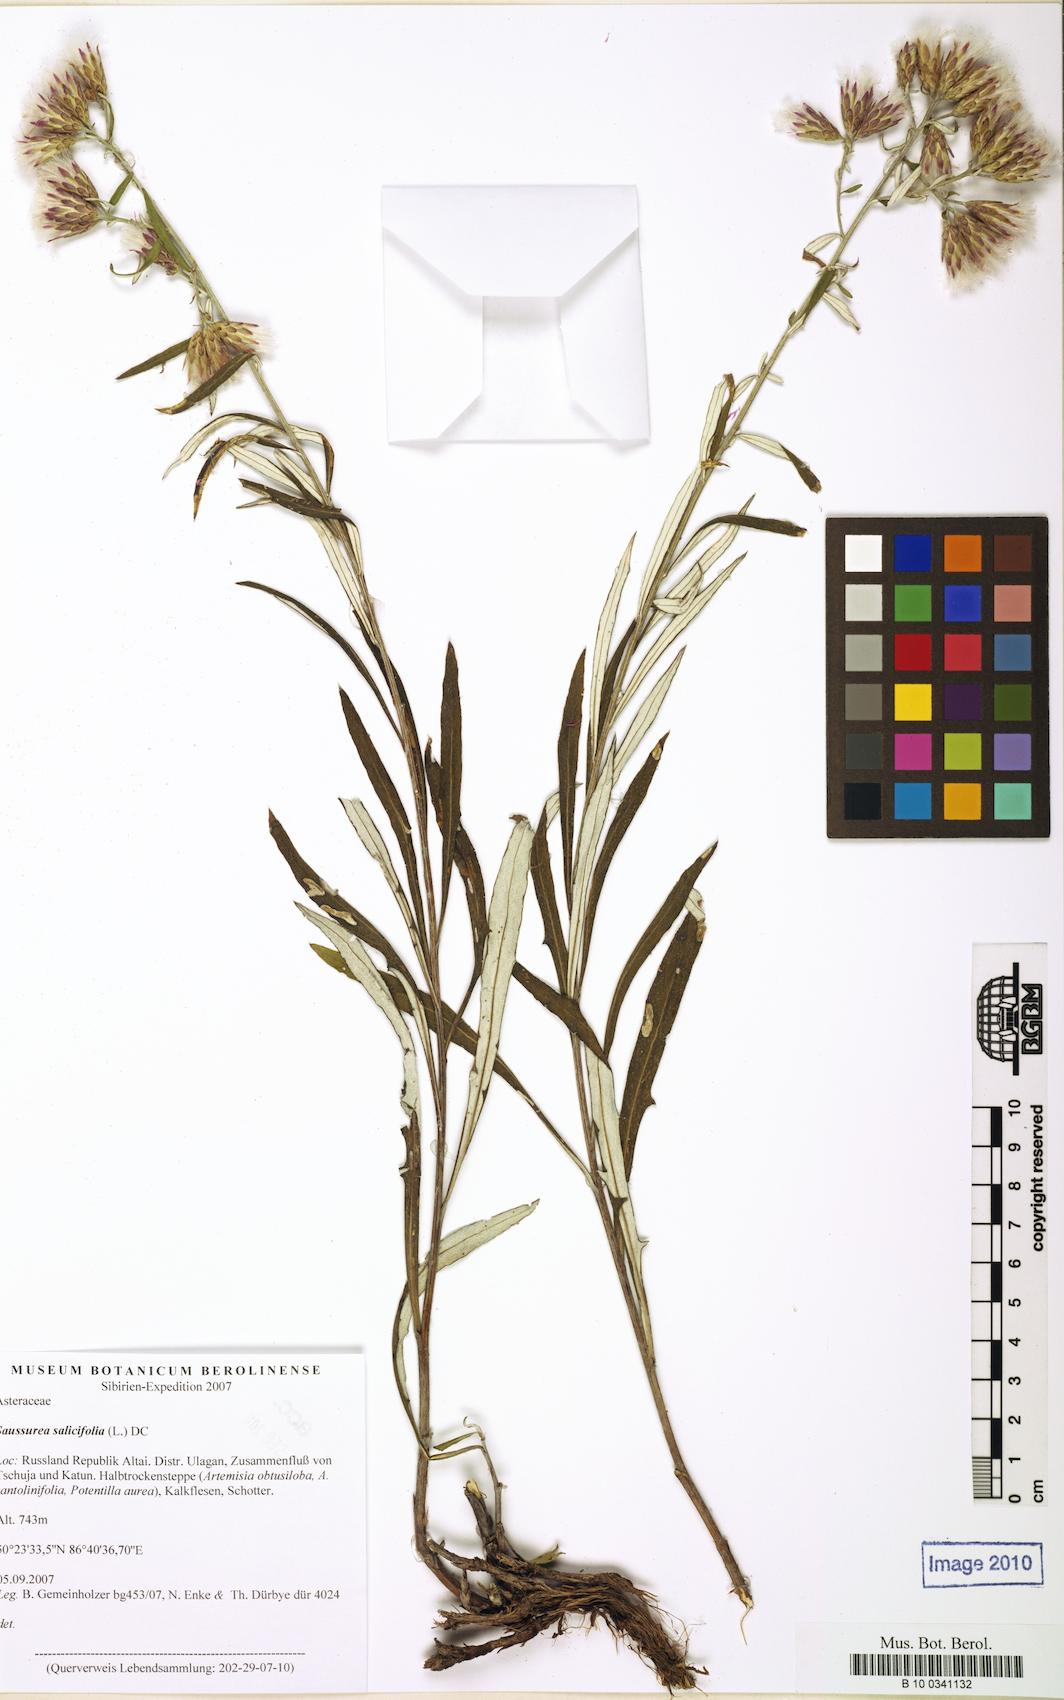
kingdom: Plantae
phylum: Tracheophyta
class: Magnoliopsida
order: Asterales
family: Asteraceae
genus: Saussurea
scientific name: Saussurea salicifolia
